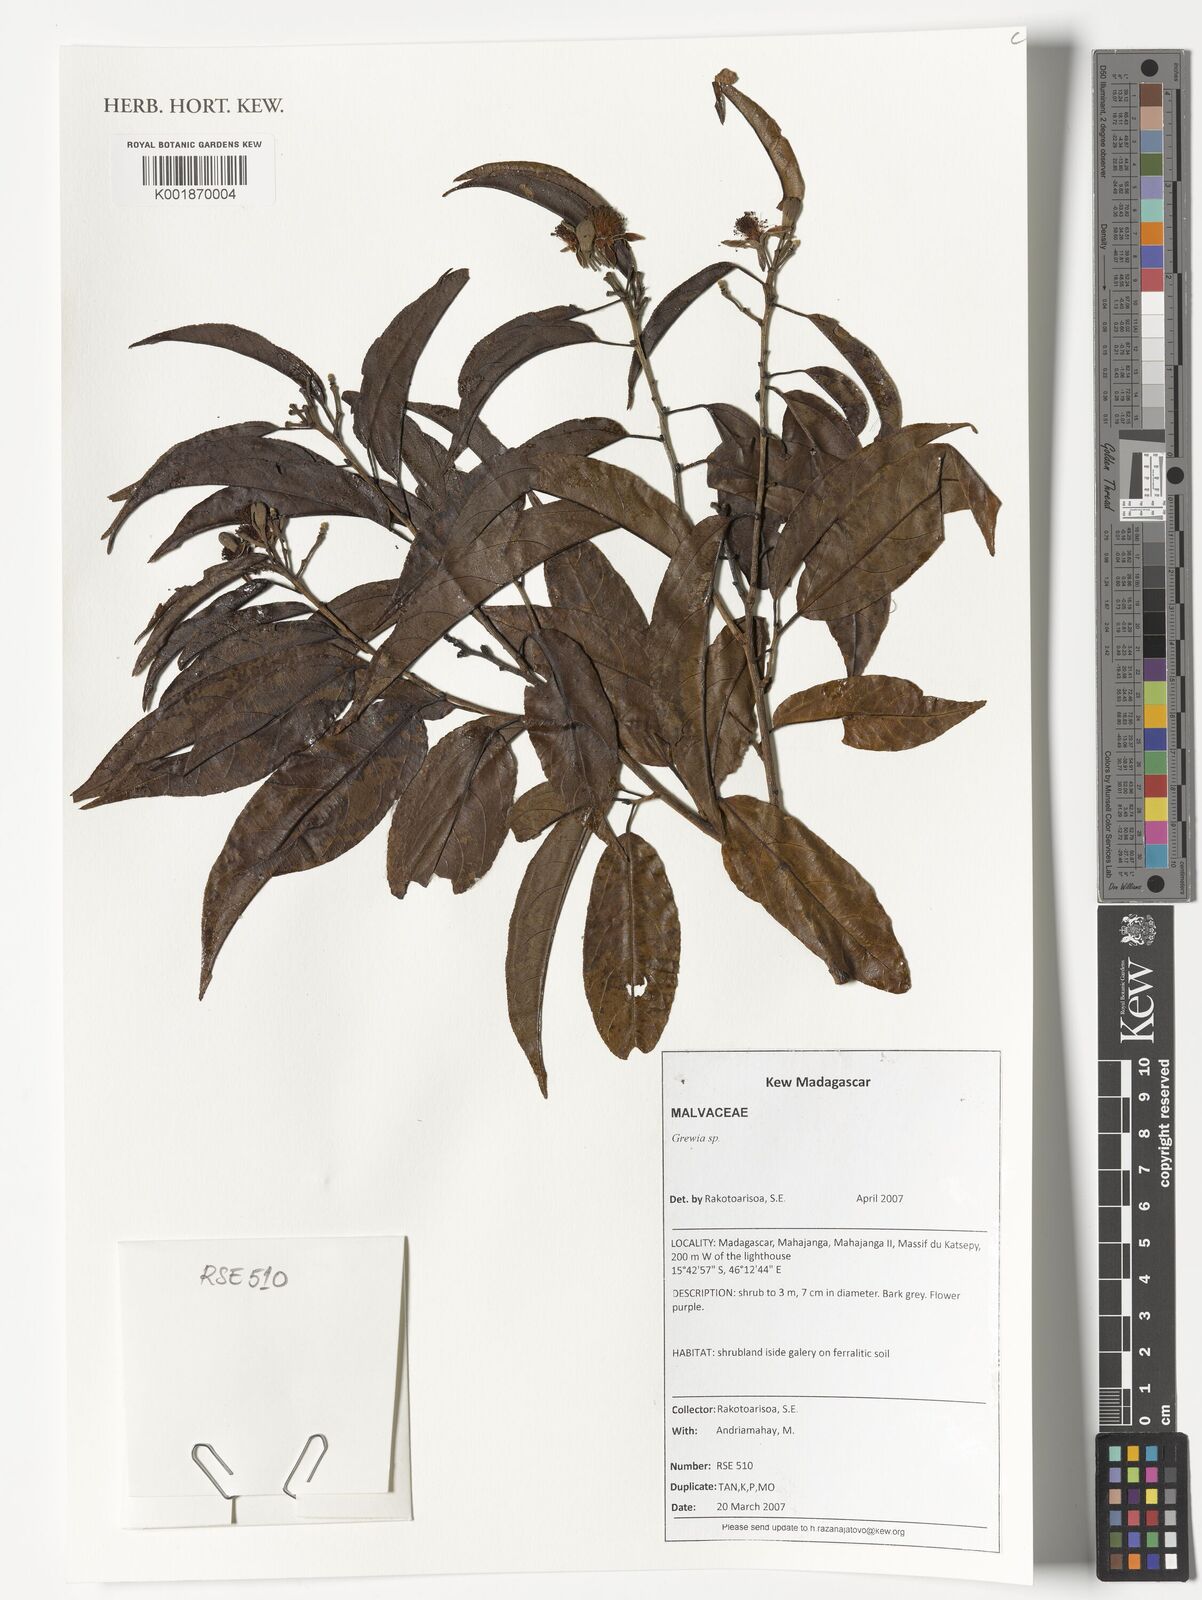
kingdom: Plantae
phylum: Tracheophyta
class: Magnoliopsida
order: Malvales
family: Malvaceae
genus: Grewia
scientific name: Grewia
